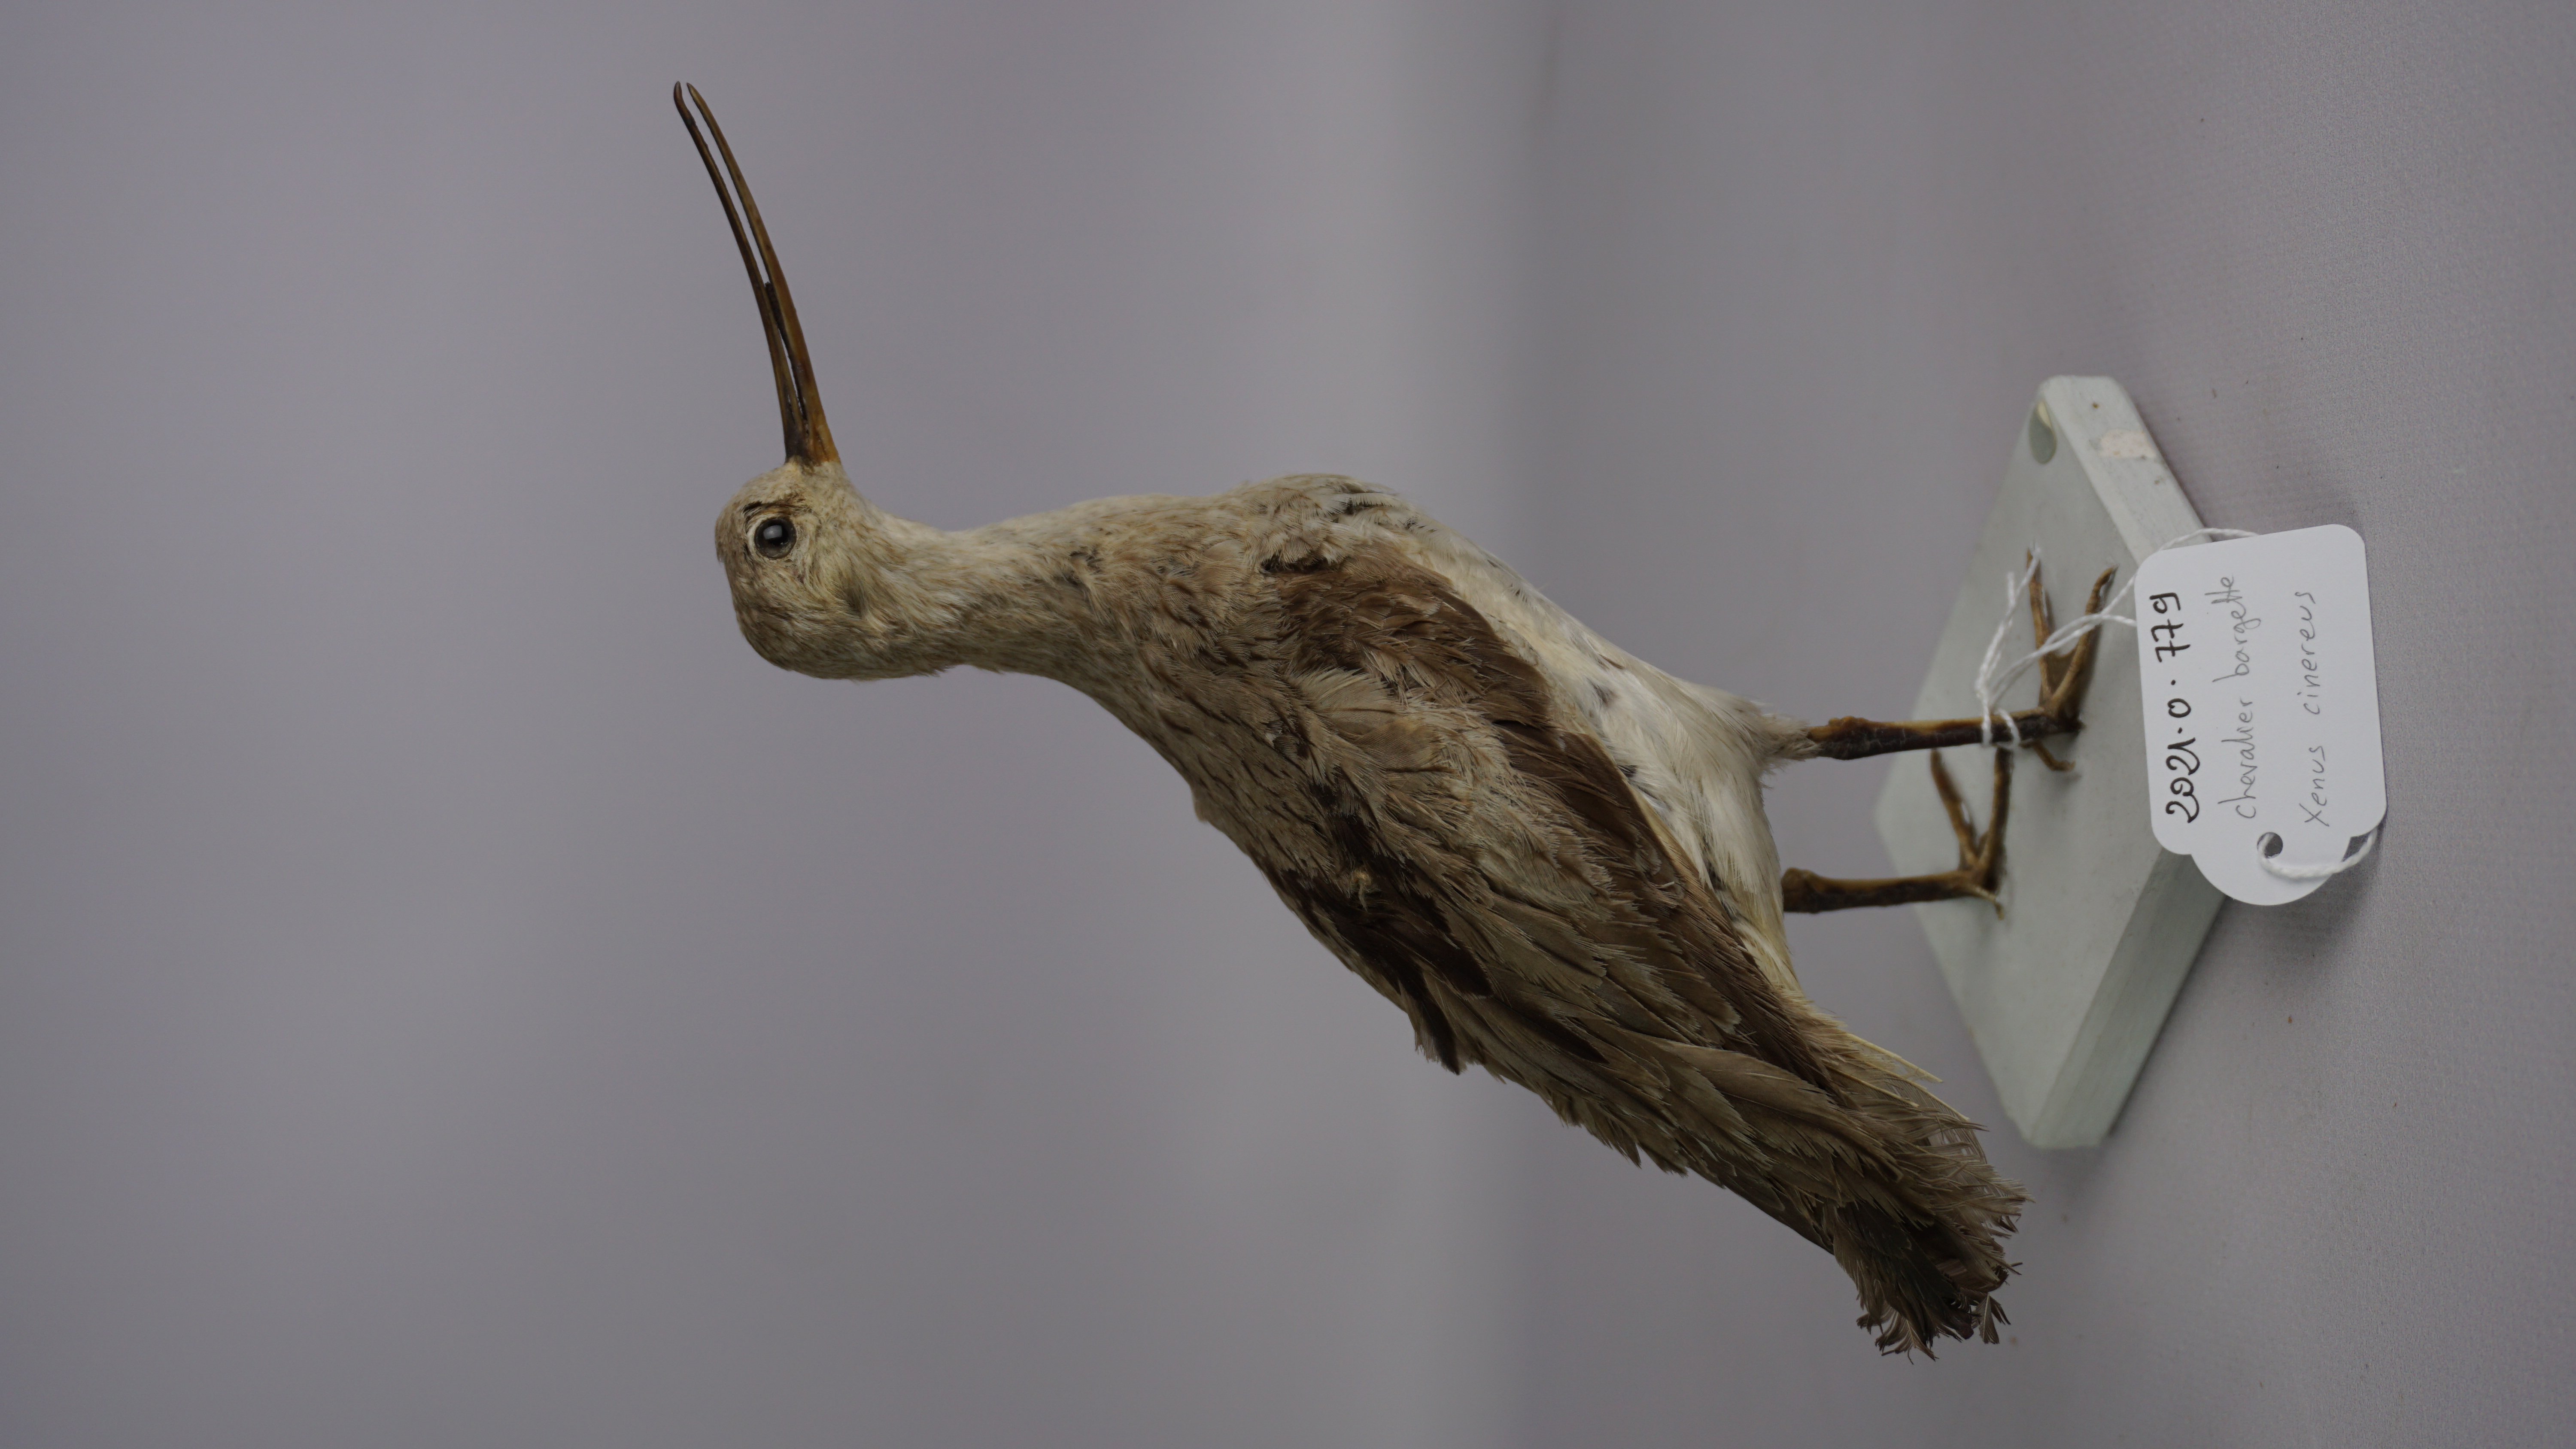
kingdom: Animalia
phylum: Chordata
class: Aves
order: Charadriiformes
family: Scolopacidae
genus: Xenus
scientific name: Xenus cinereus
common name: Terek sandpiper
